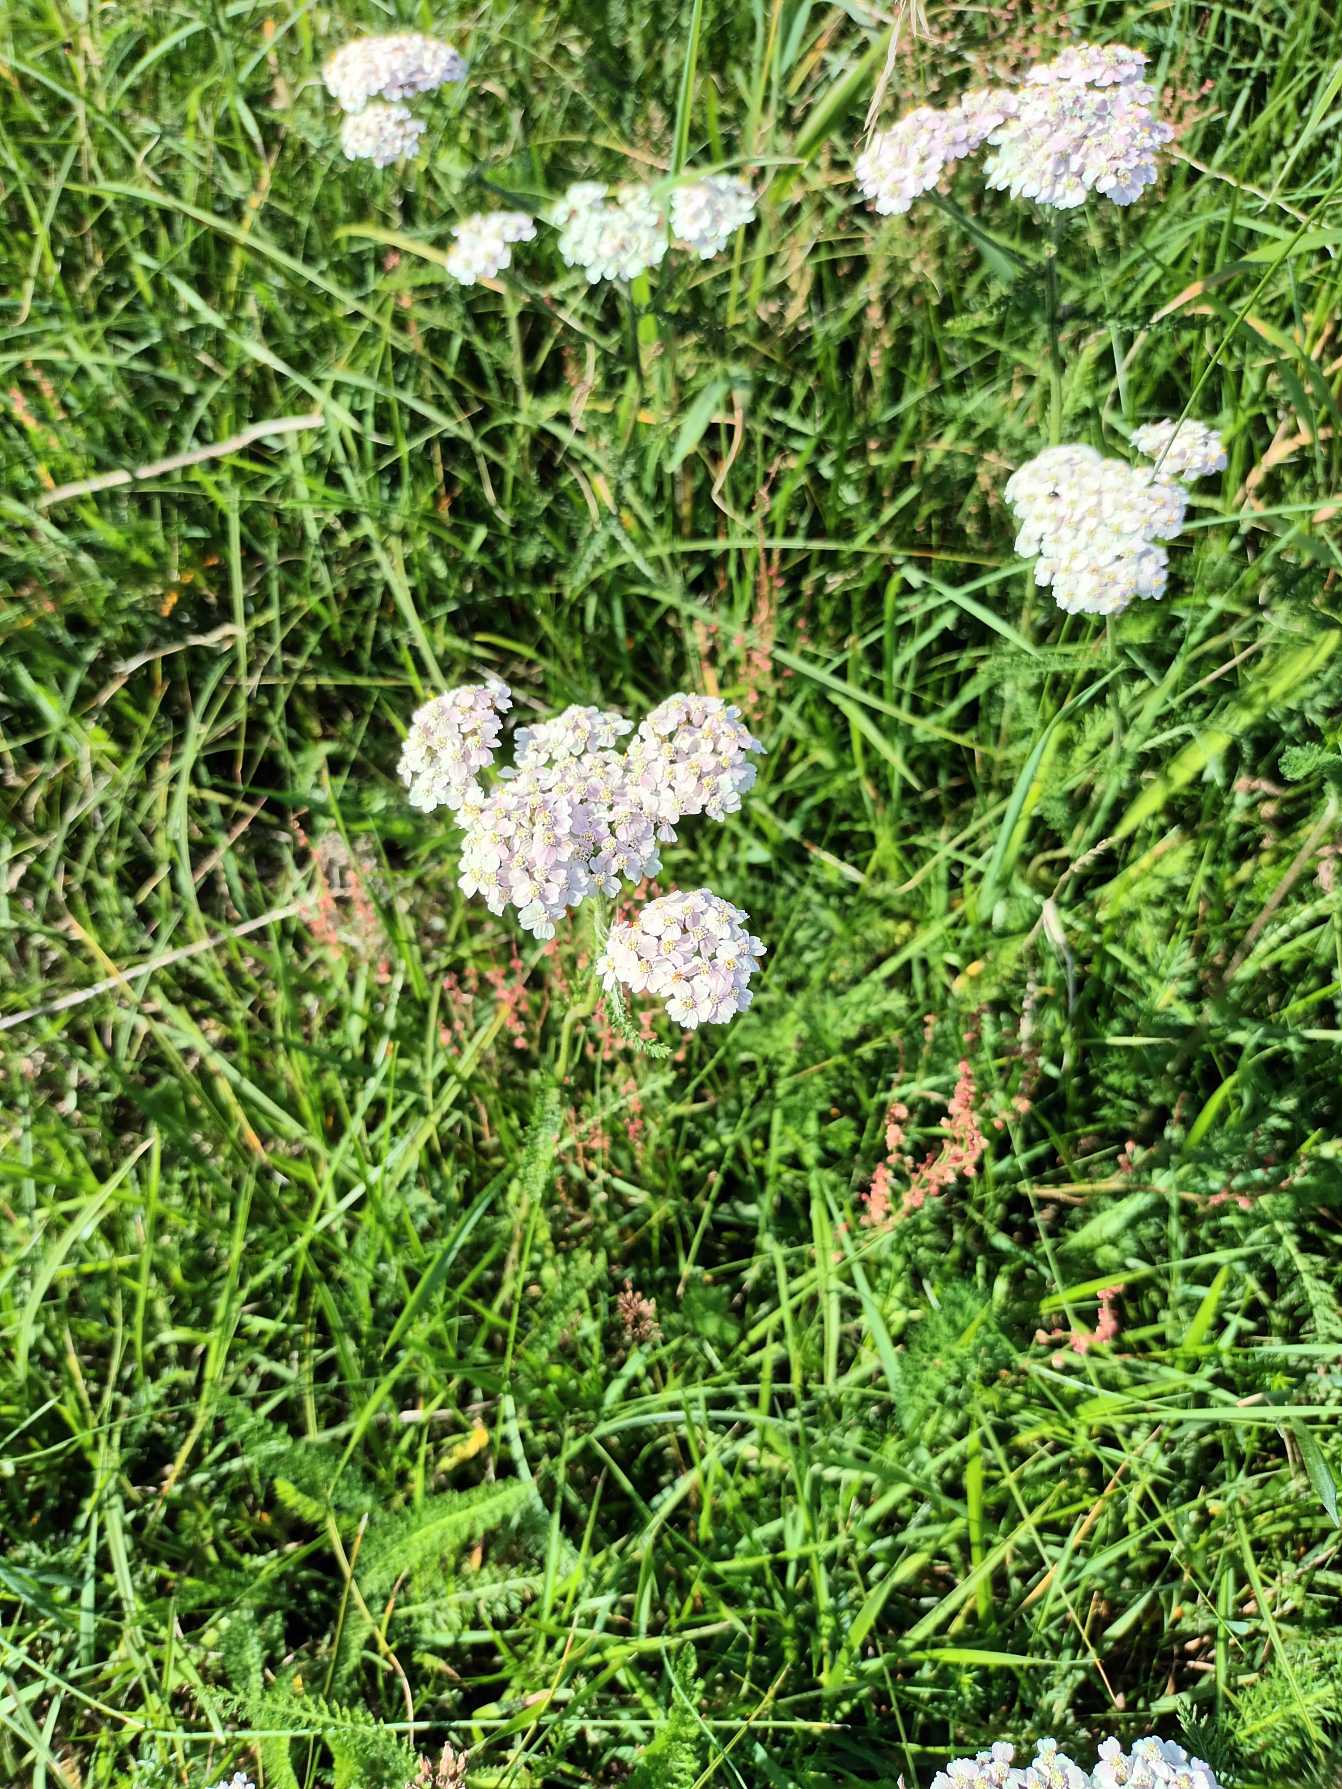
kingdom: Plantae
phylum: Tracheophyta
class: Magnoliopsida
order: Asterales
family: Asteraceae
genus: Achillea
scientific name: Achillea millefolium
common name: Almindelig røllike
